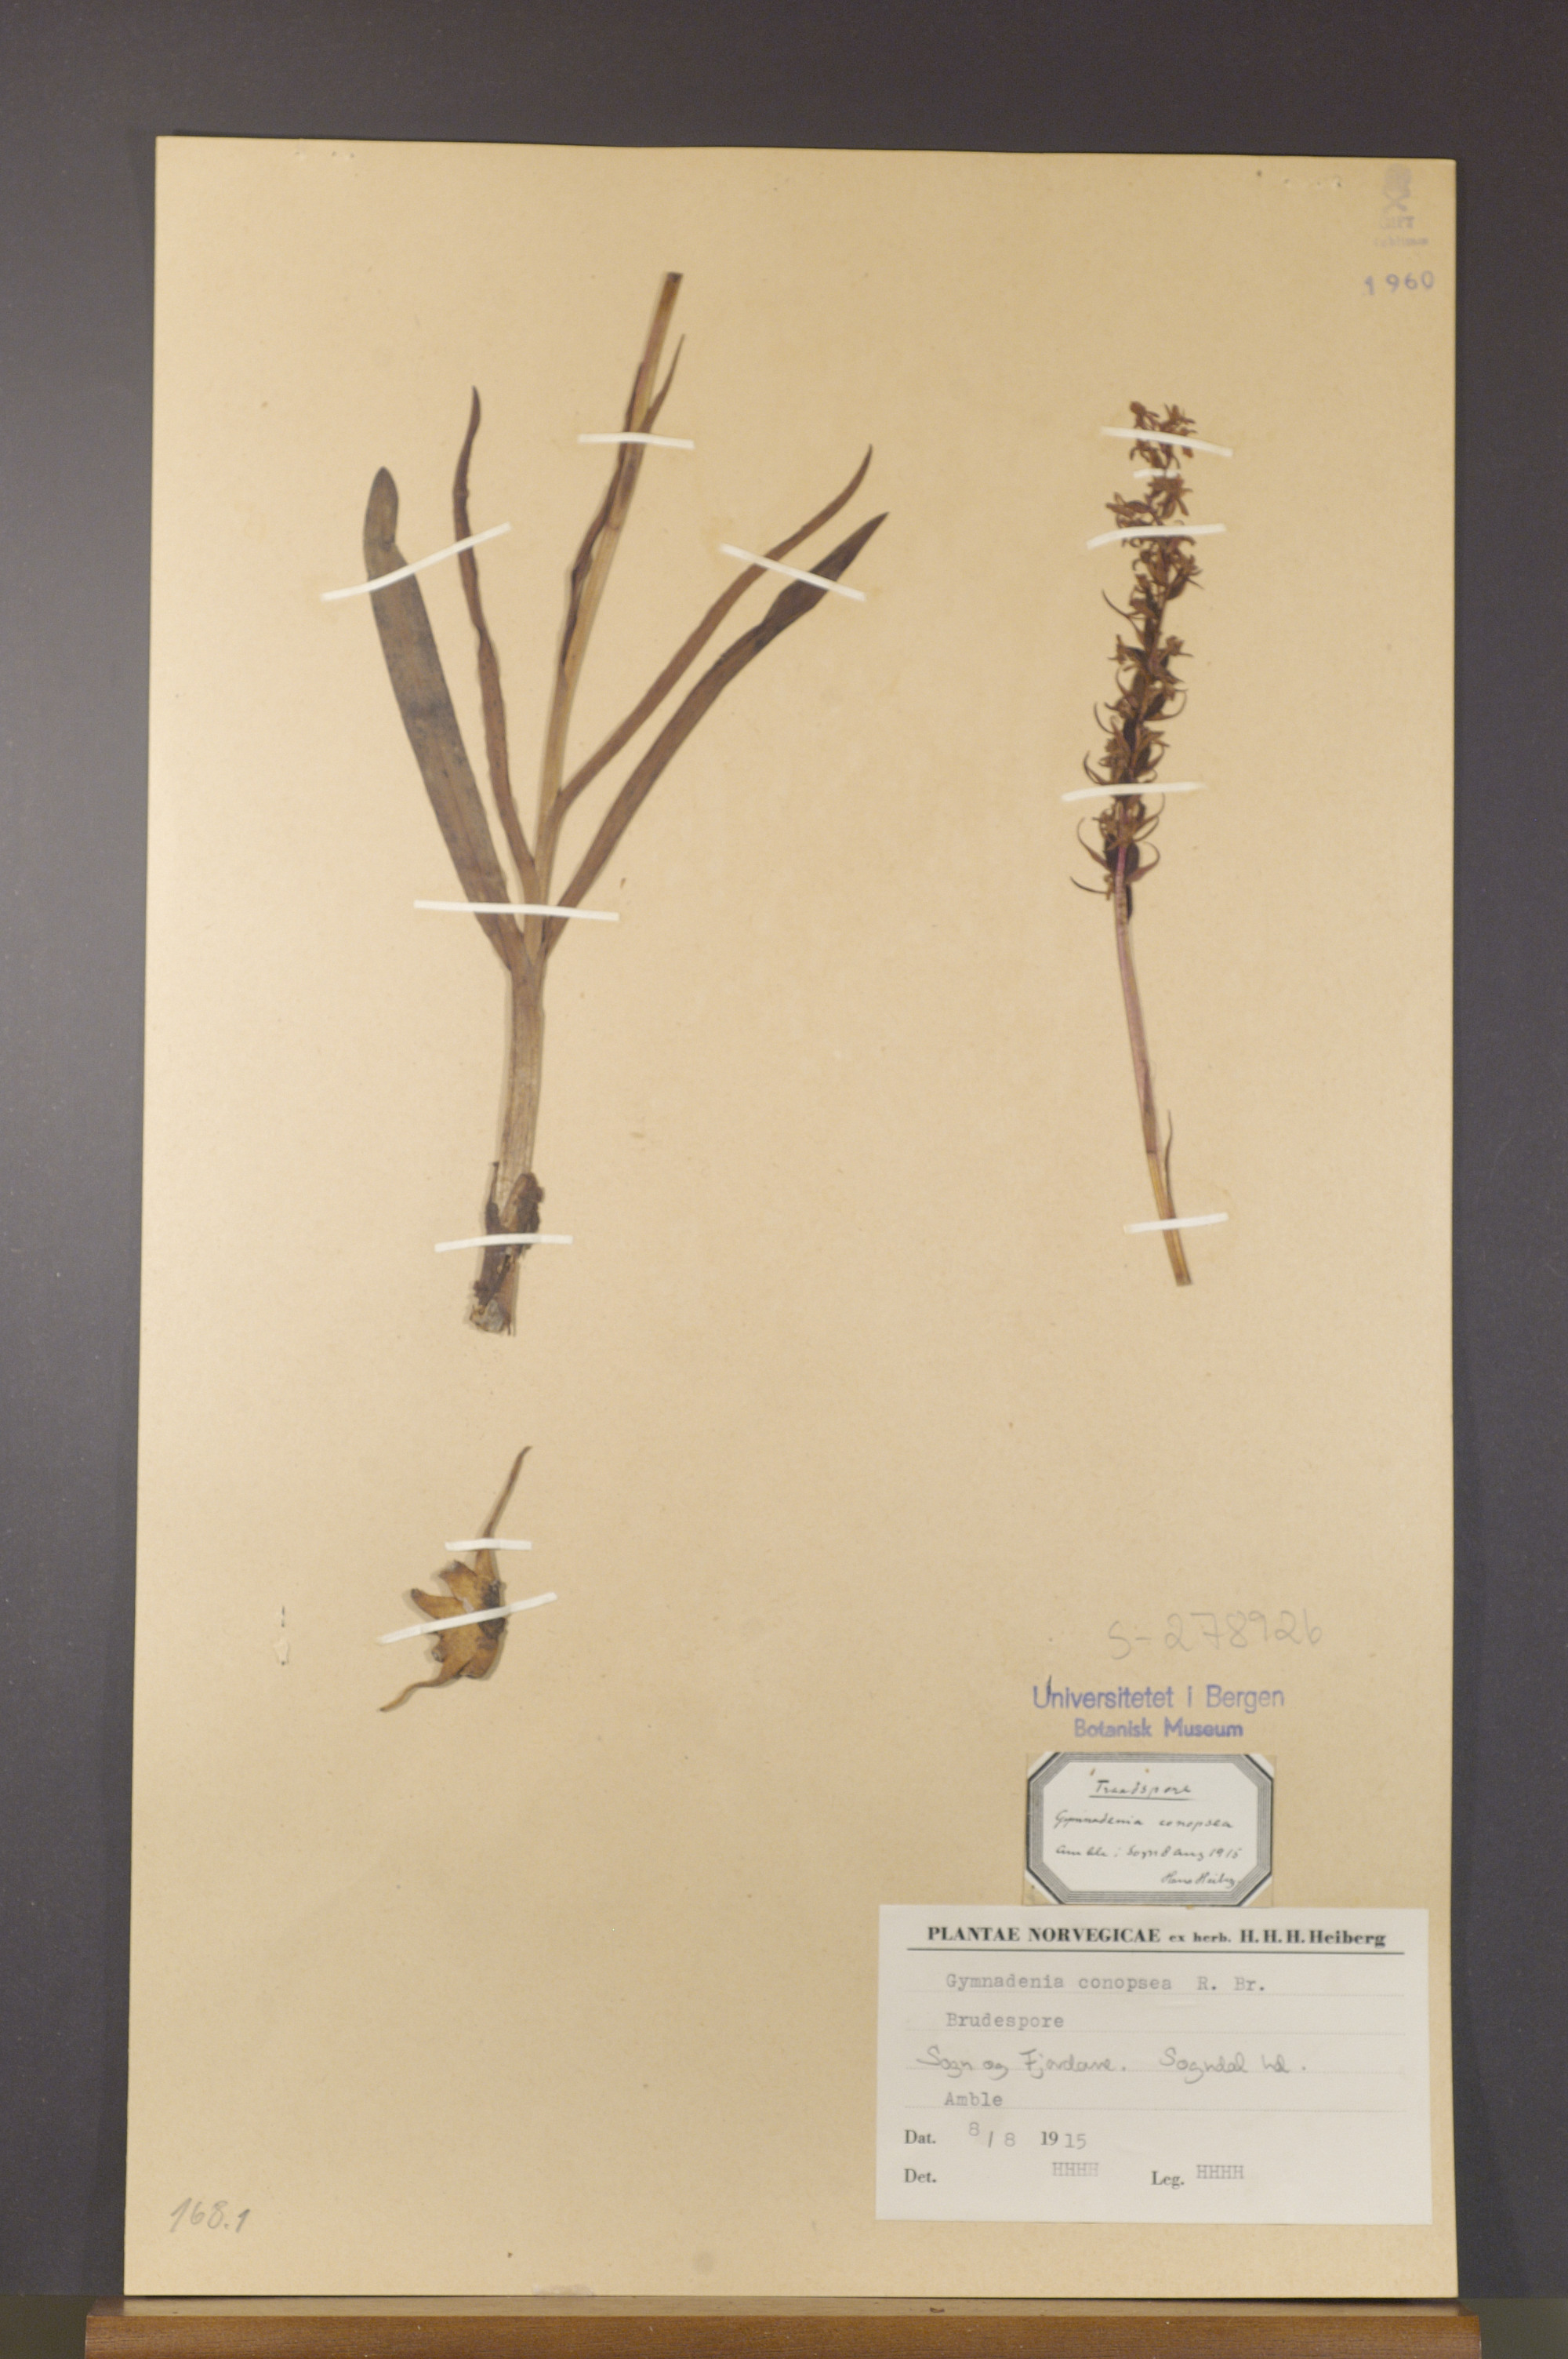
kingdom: Plantae
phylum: Tracheophyta
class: Liliopsida
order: Asparagales
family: Orchidaceae
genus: Gymnadenia
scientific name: Gymnadenia conopsea
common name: Fragrant orchid
